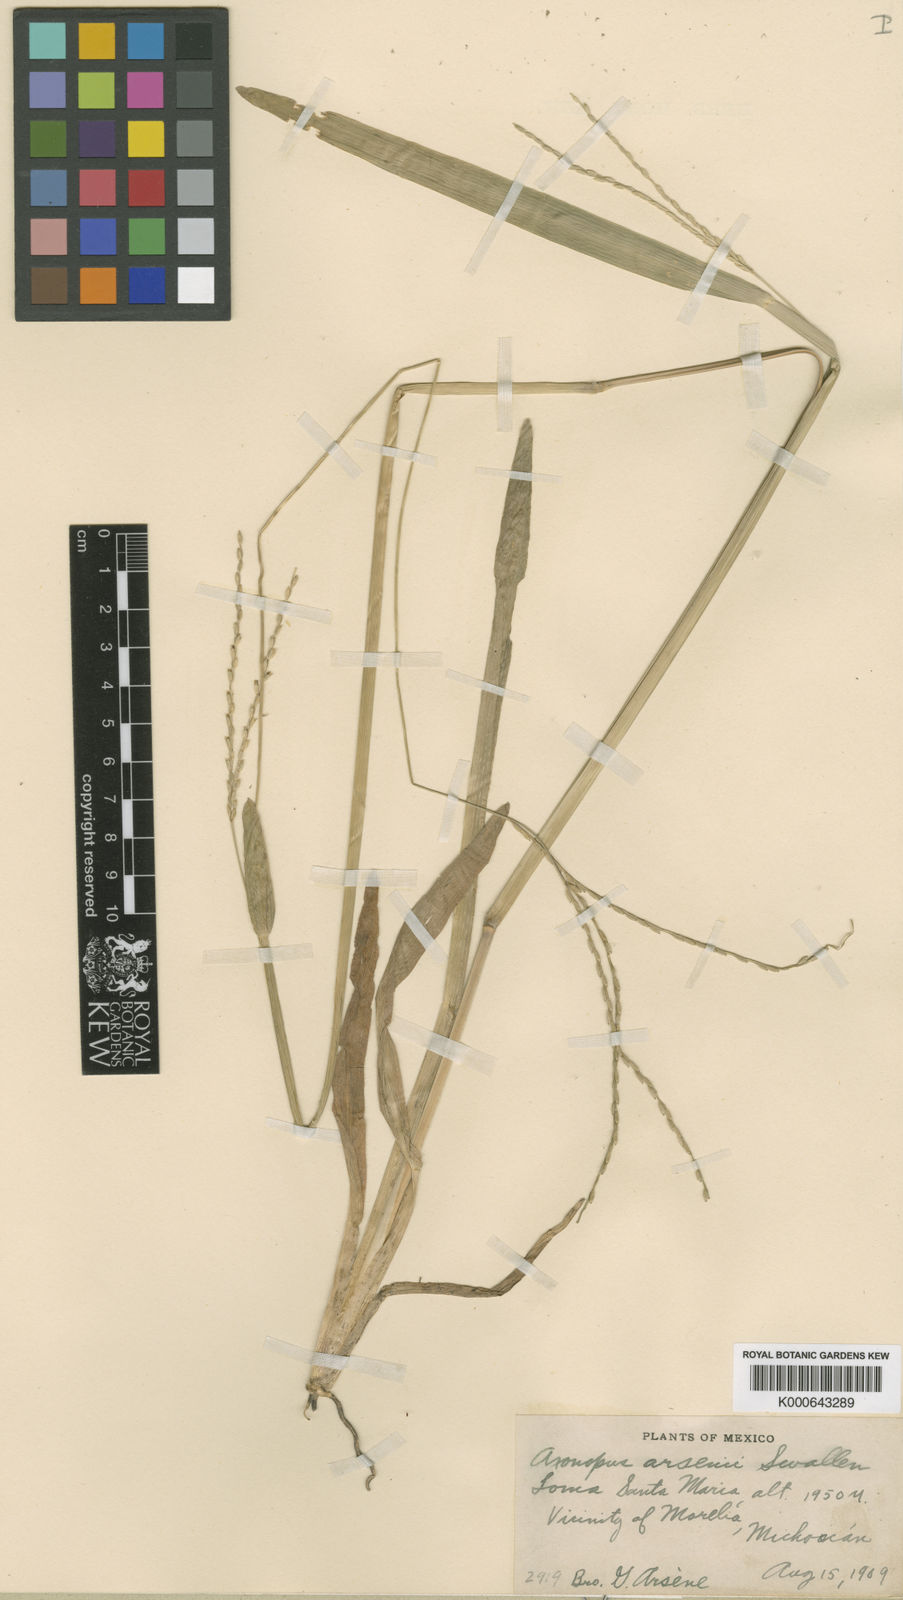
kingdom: Plantae
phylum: Tracheophyta
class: Liliopsida
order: Poales
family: Poaceae
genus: Axonopus
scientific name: Axonopus compressus
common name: American carpet grass
